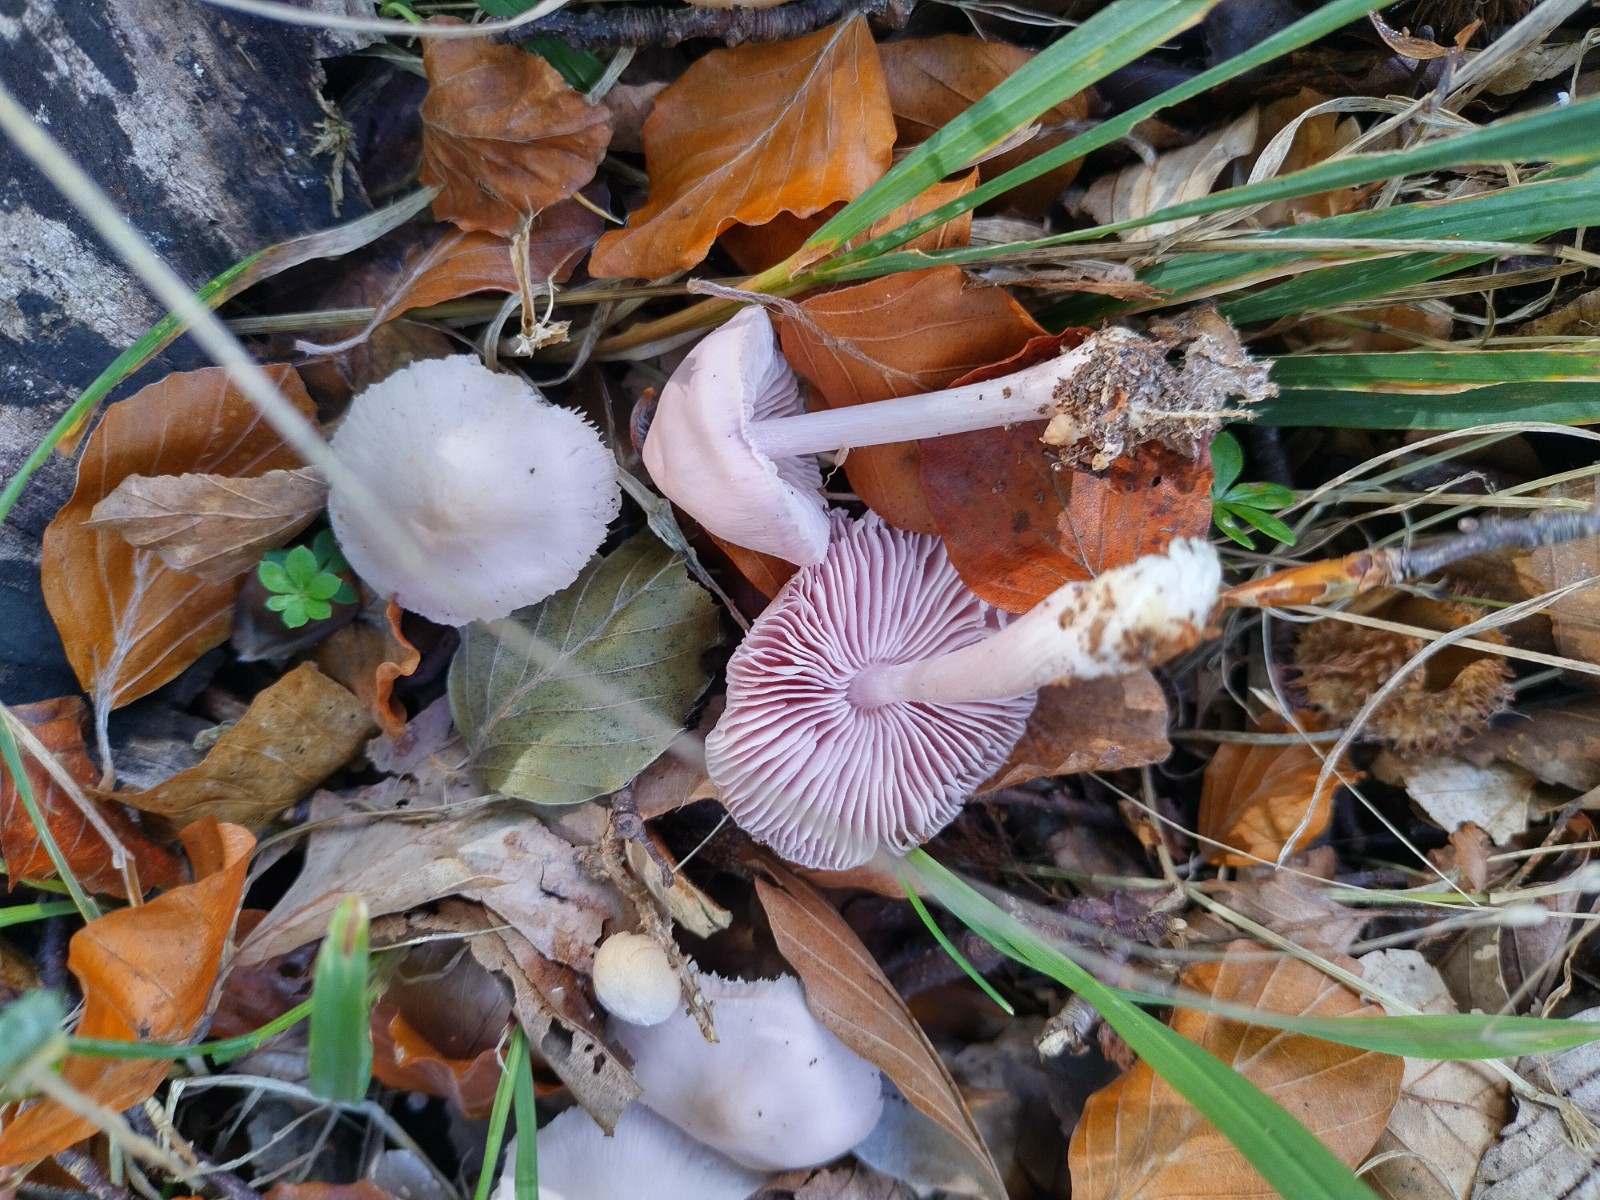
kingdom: Fungi
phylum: Basidiomycota
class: Agaricomycetes
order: Agaricales
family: Mycenaceae
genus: Mycena
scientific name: Mycena rosea
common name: rosa huesvamp
